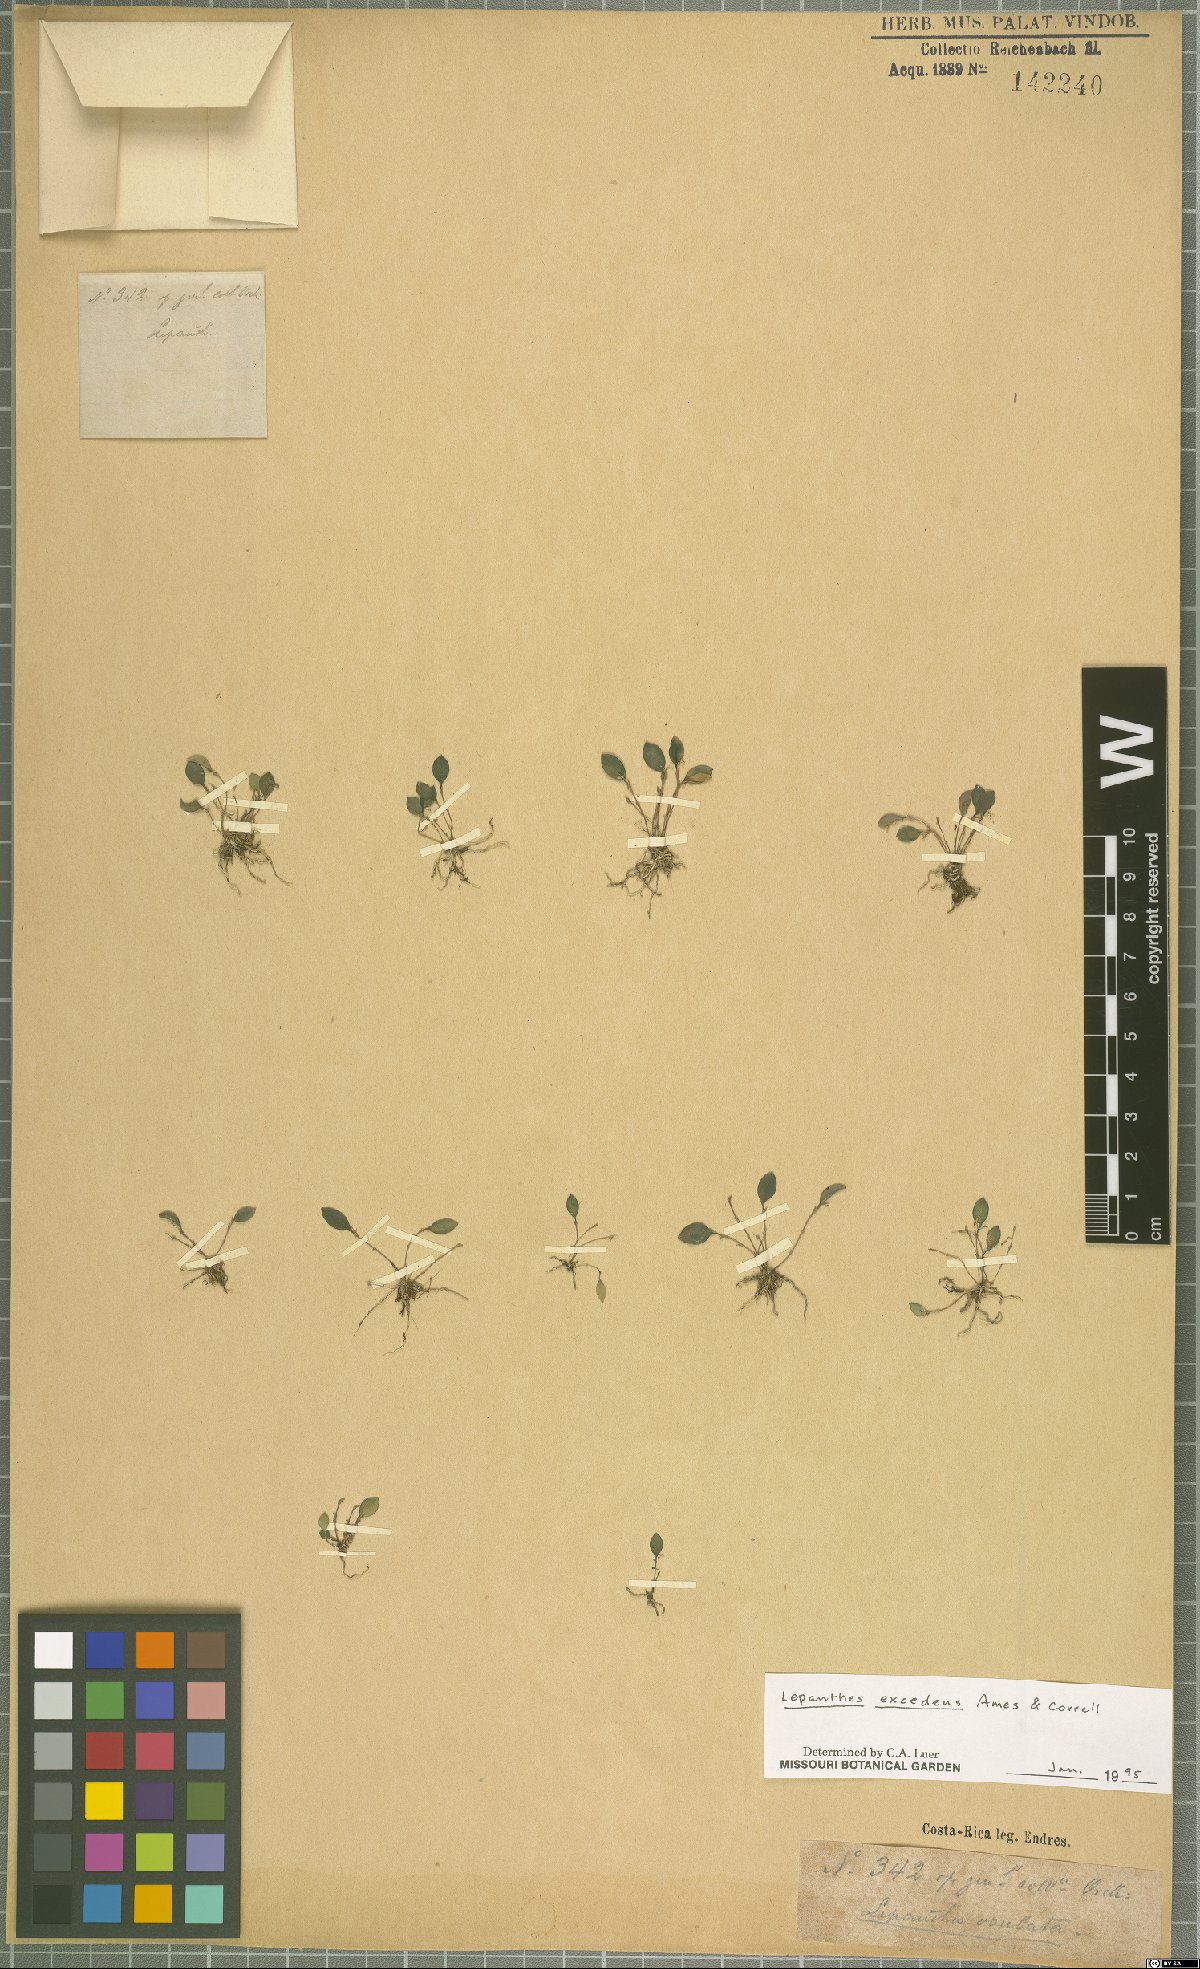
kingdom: Plantae
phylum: Tracheophyta
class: Liliopsida
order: Asparagales
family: Orchidaceae
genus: Lepanthes
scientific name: Lepanthes excedens
